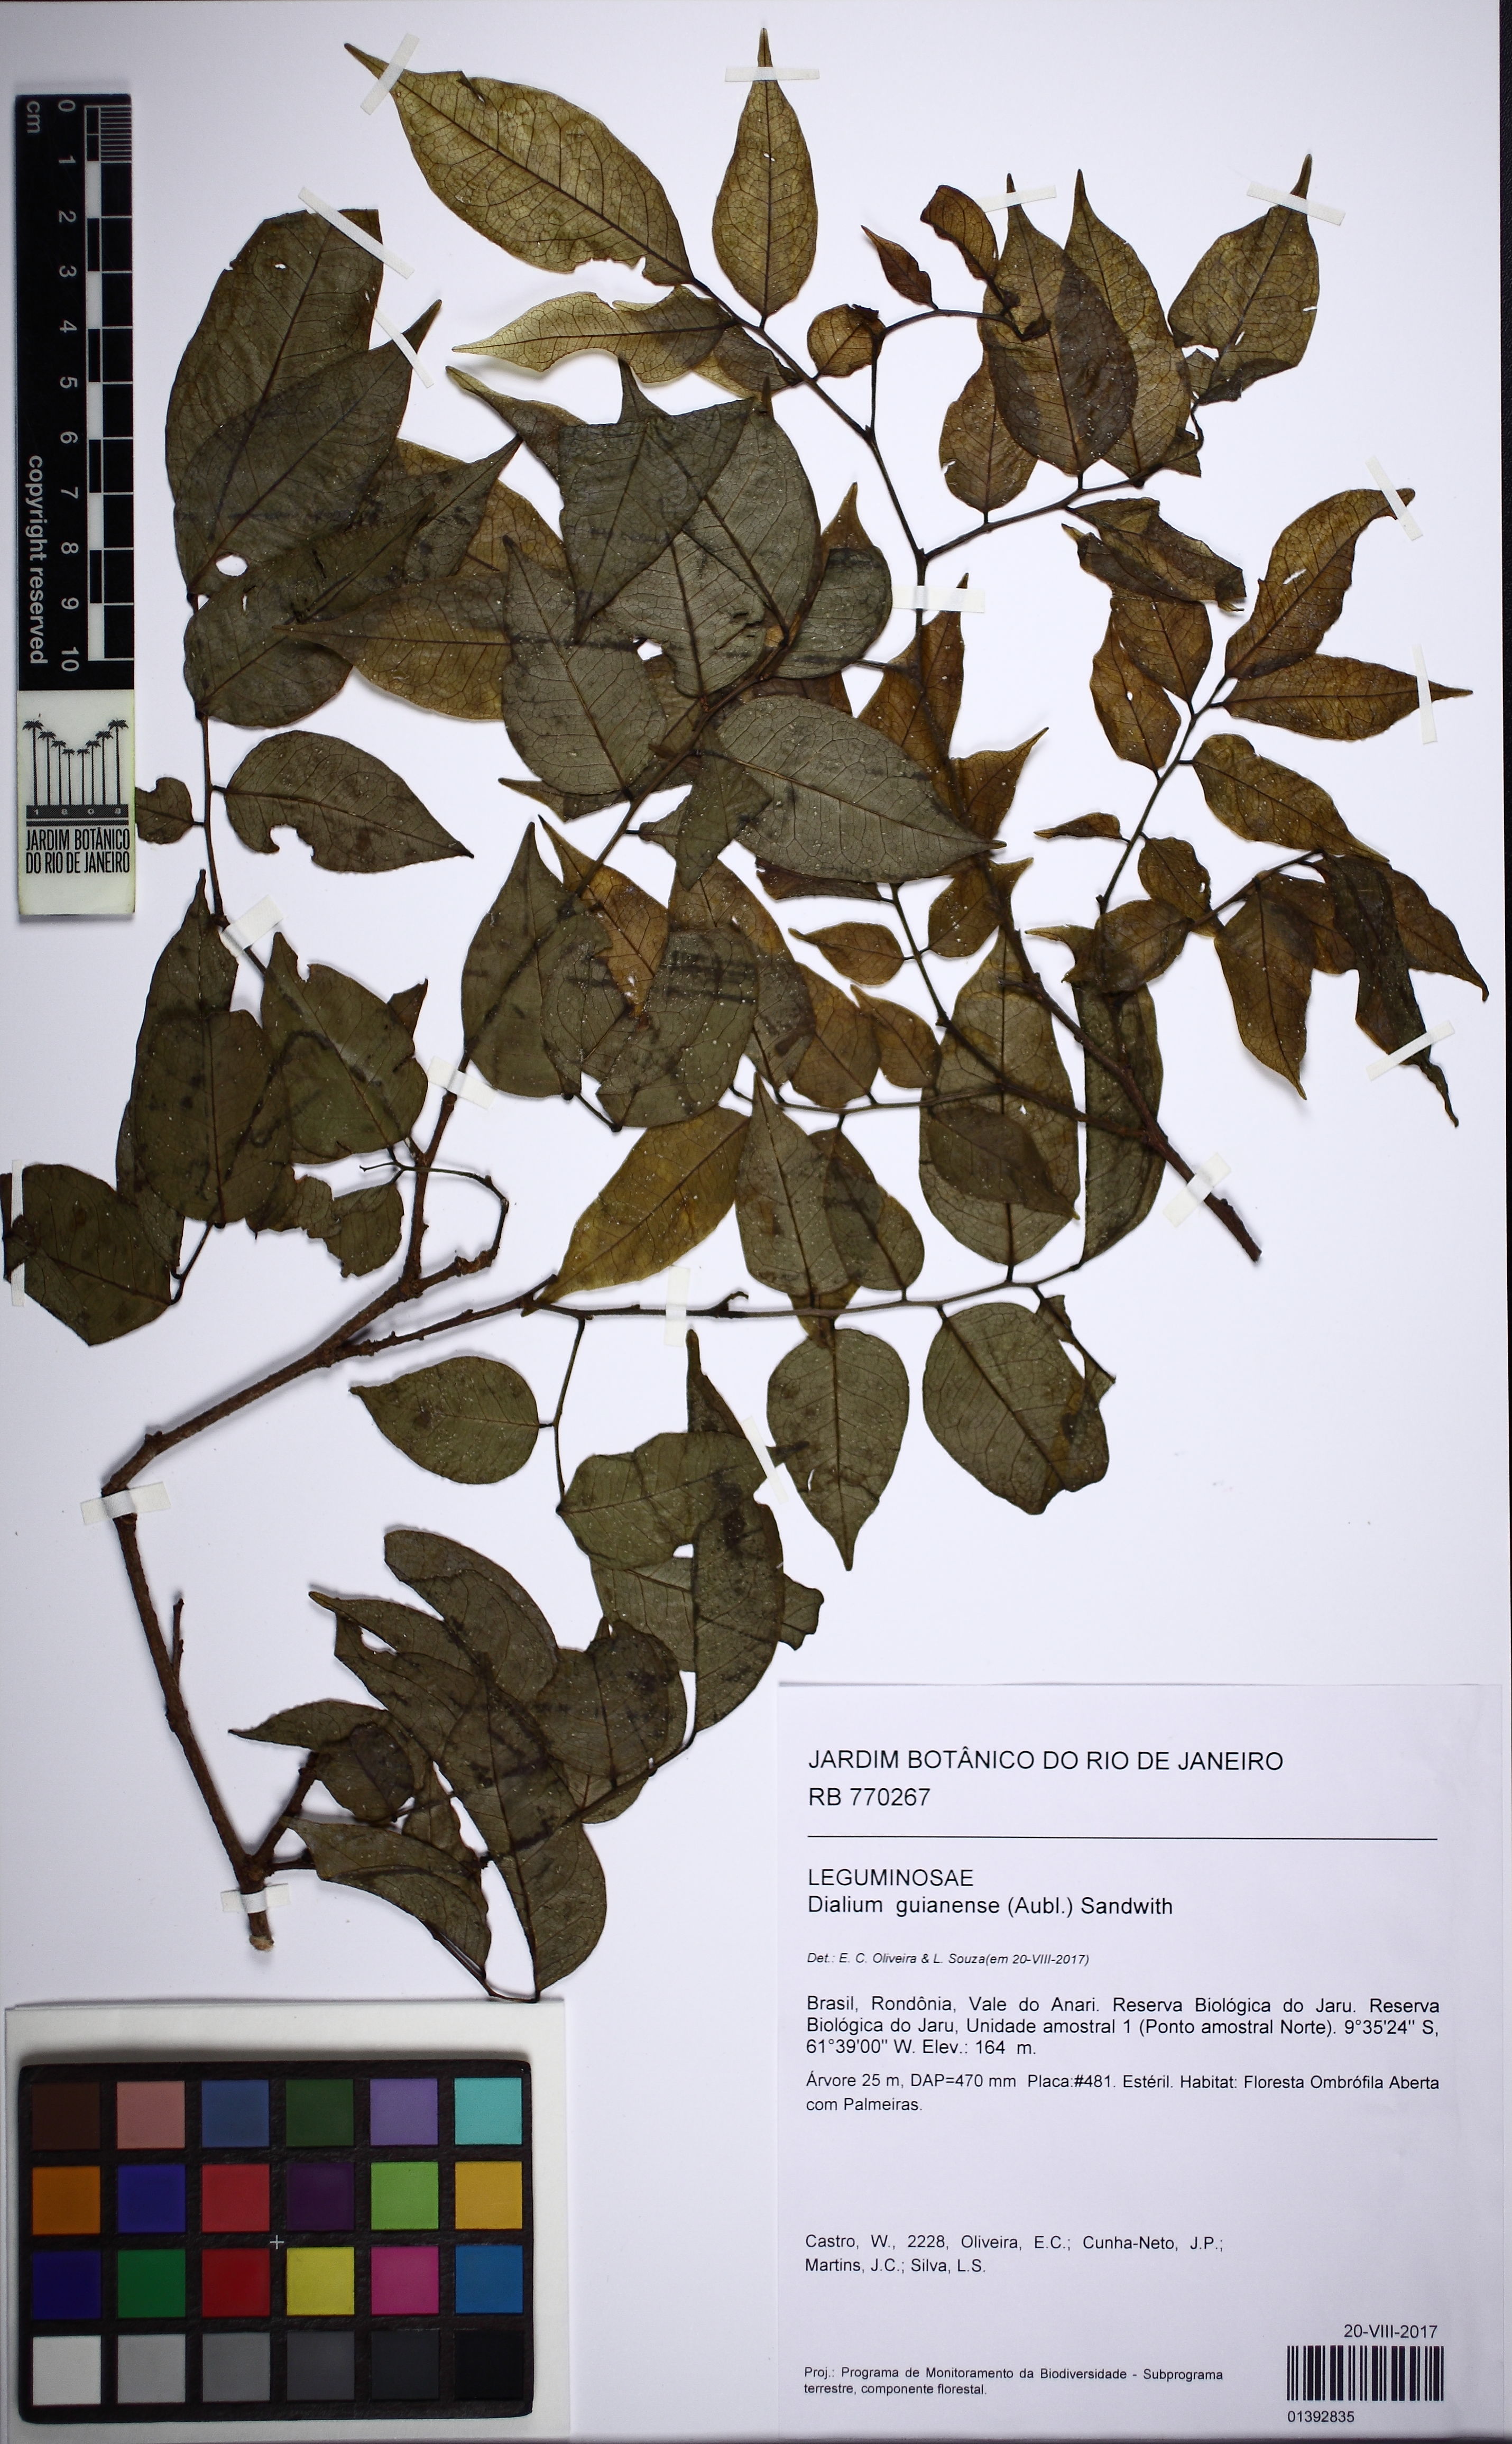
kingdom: Plantae
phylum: Tracheophyta
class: Magnoliopsida
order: Fabales
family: Fabaceae
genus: Dialium
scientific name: Dialium guianense
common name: Ironwood
